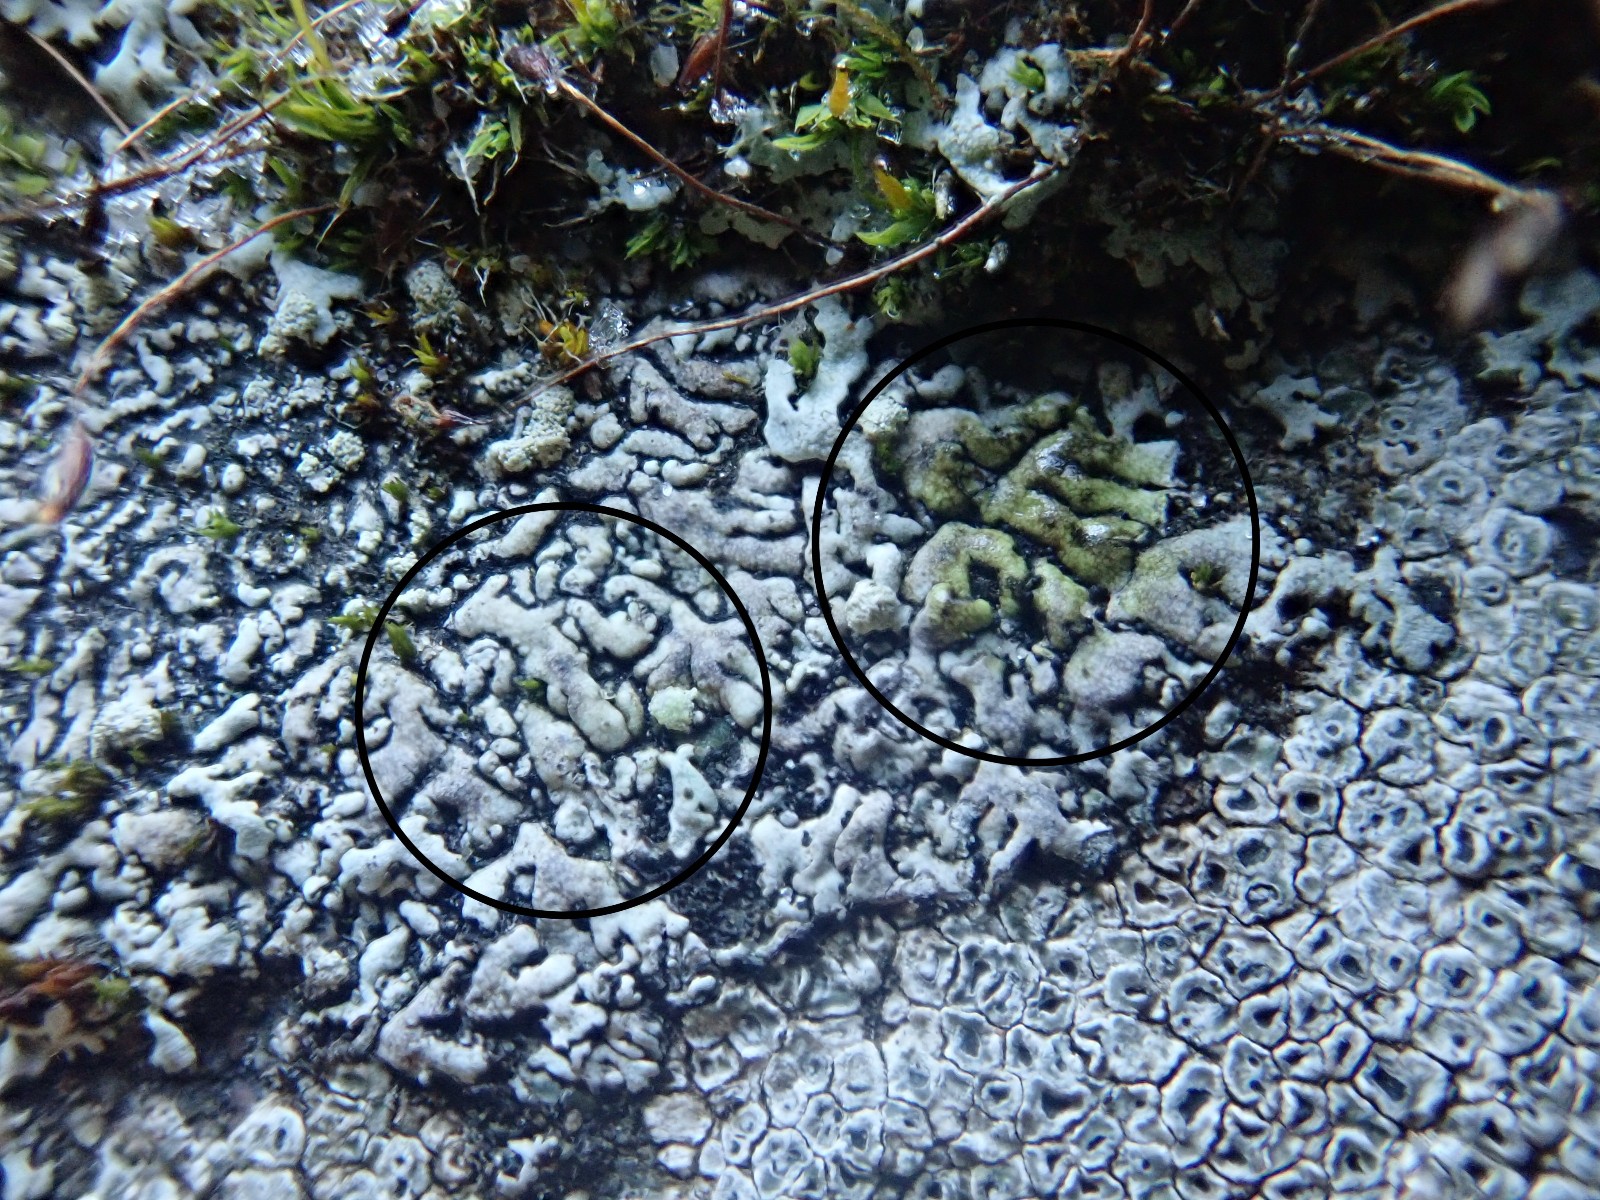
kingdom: Fungi
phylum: Ascomycota
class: Lecanoromycetes
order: Caliciales
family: Physciaceae
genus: Physcia
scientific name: Physcia caesia
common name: blågrå rosetlav
